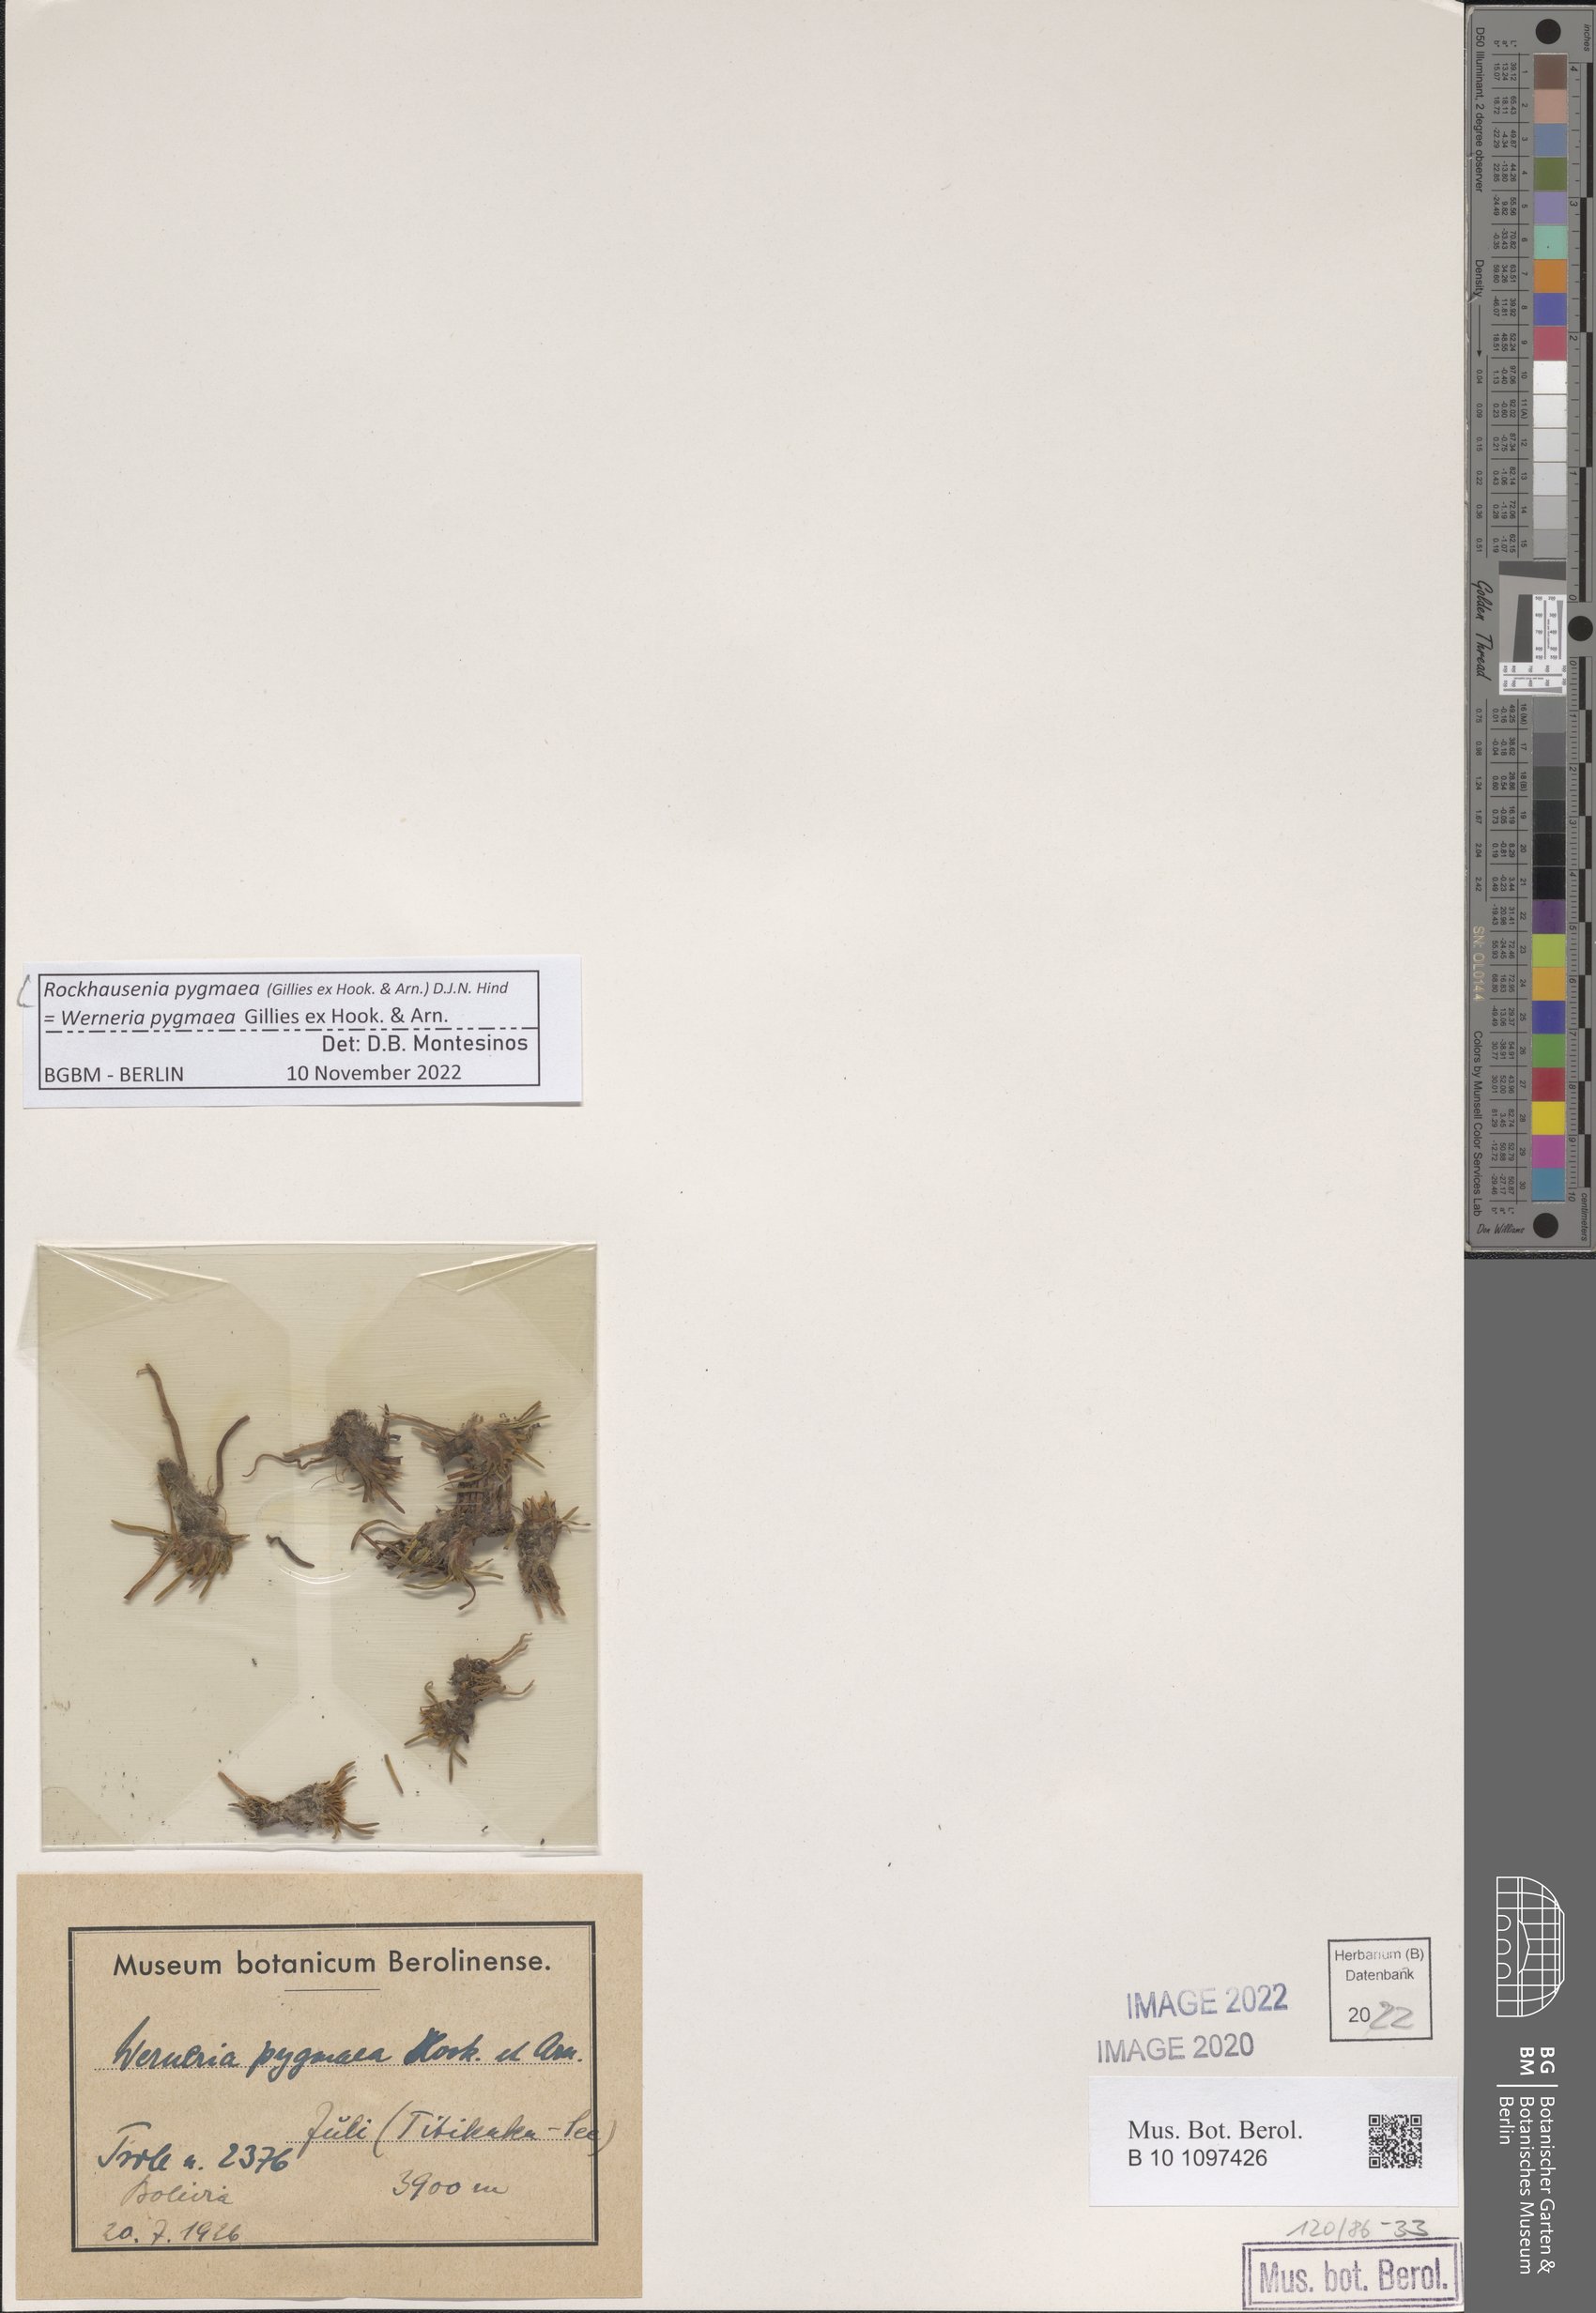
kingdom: Plantae
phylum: Tracheophyta
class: Magnoliopsida
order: Asterales
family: Asteraceae
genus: Rockhausenia
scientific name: Rockhausenia pygmaea
